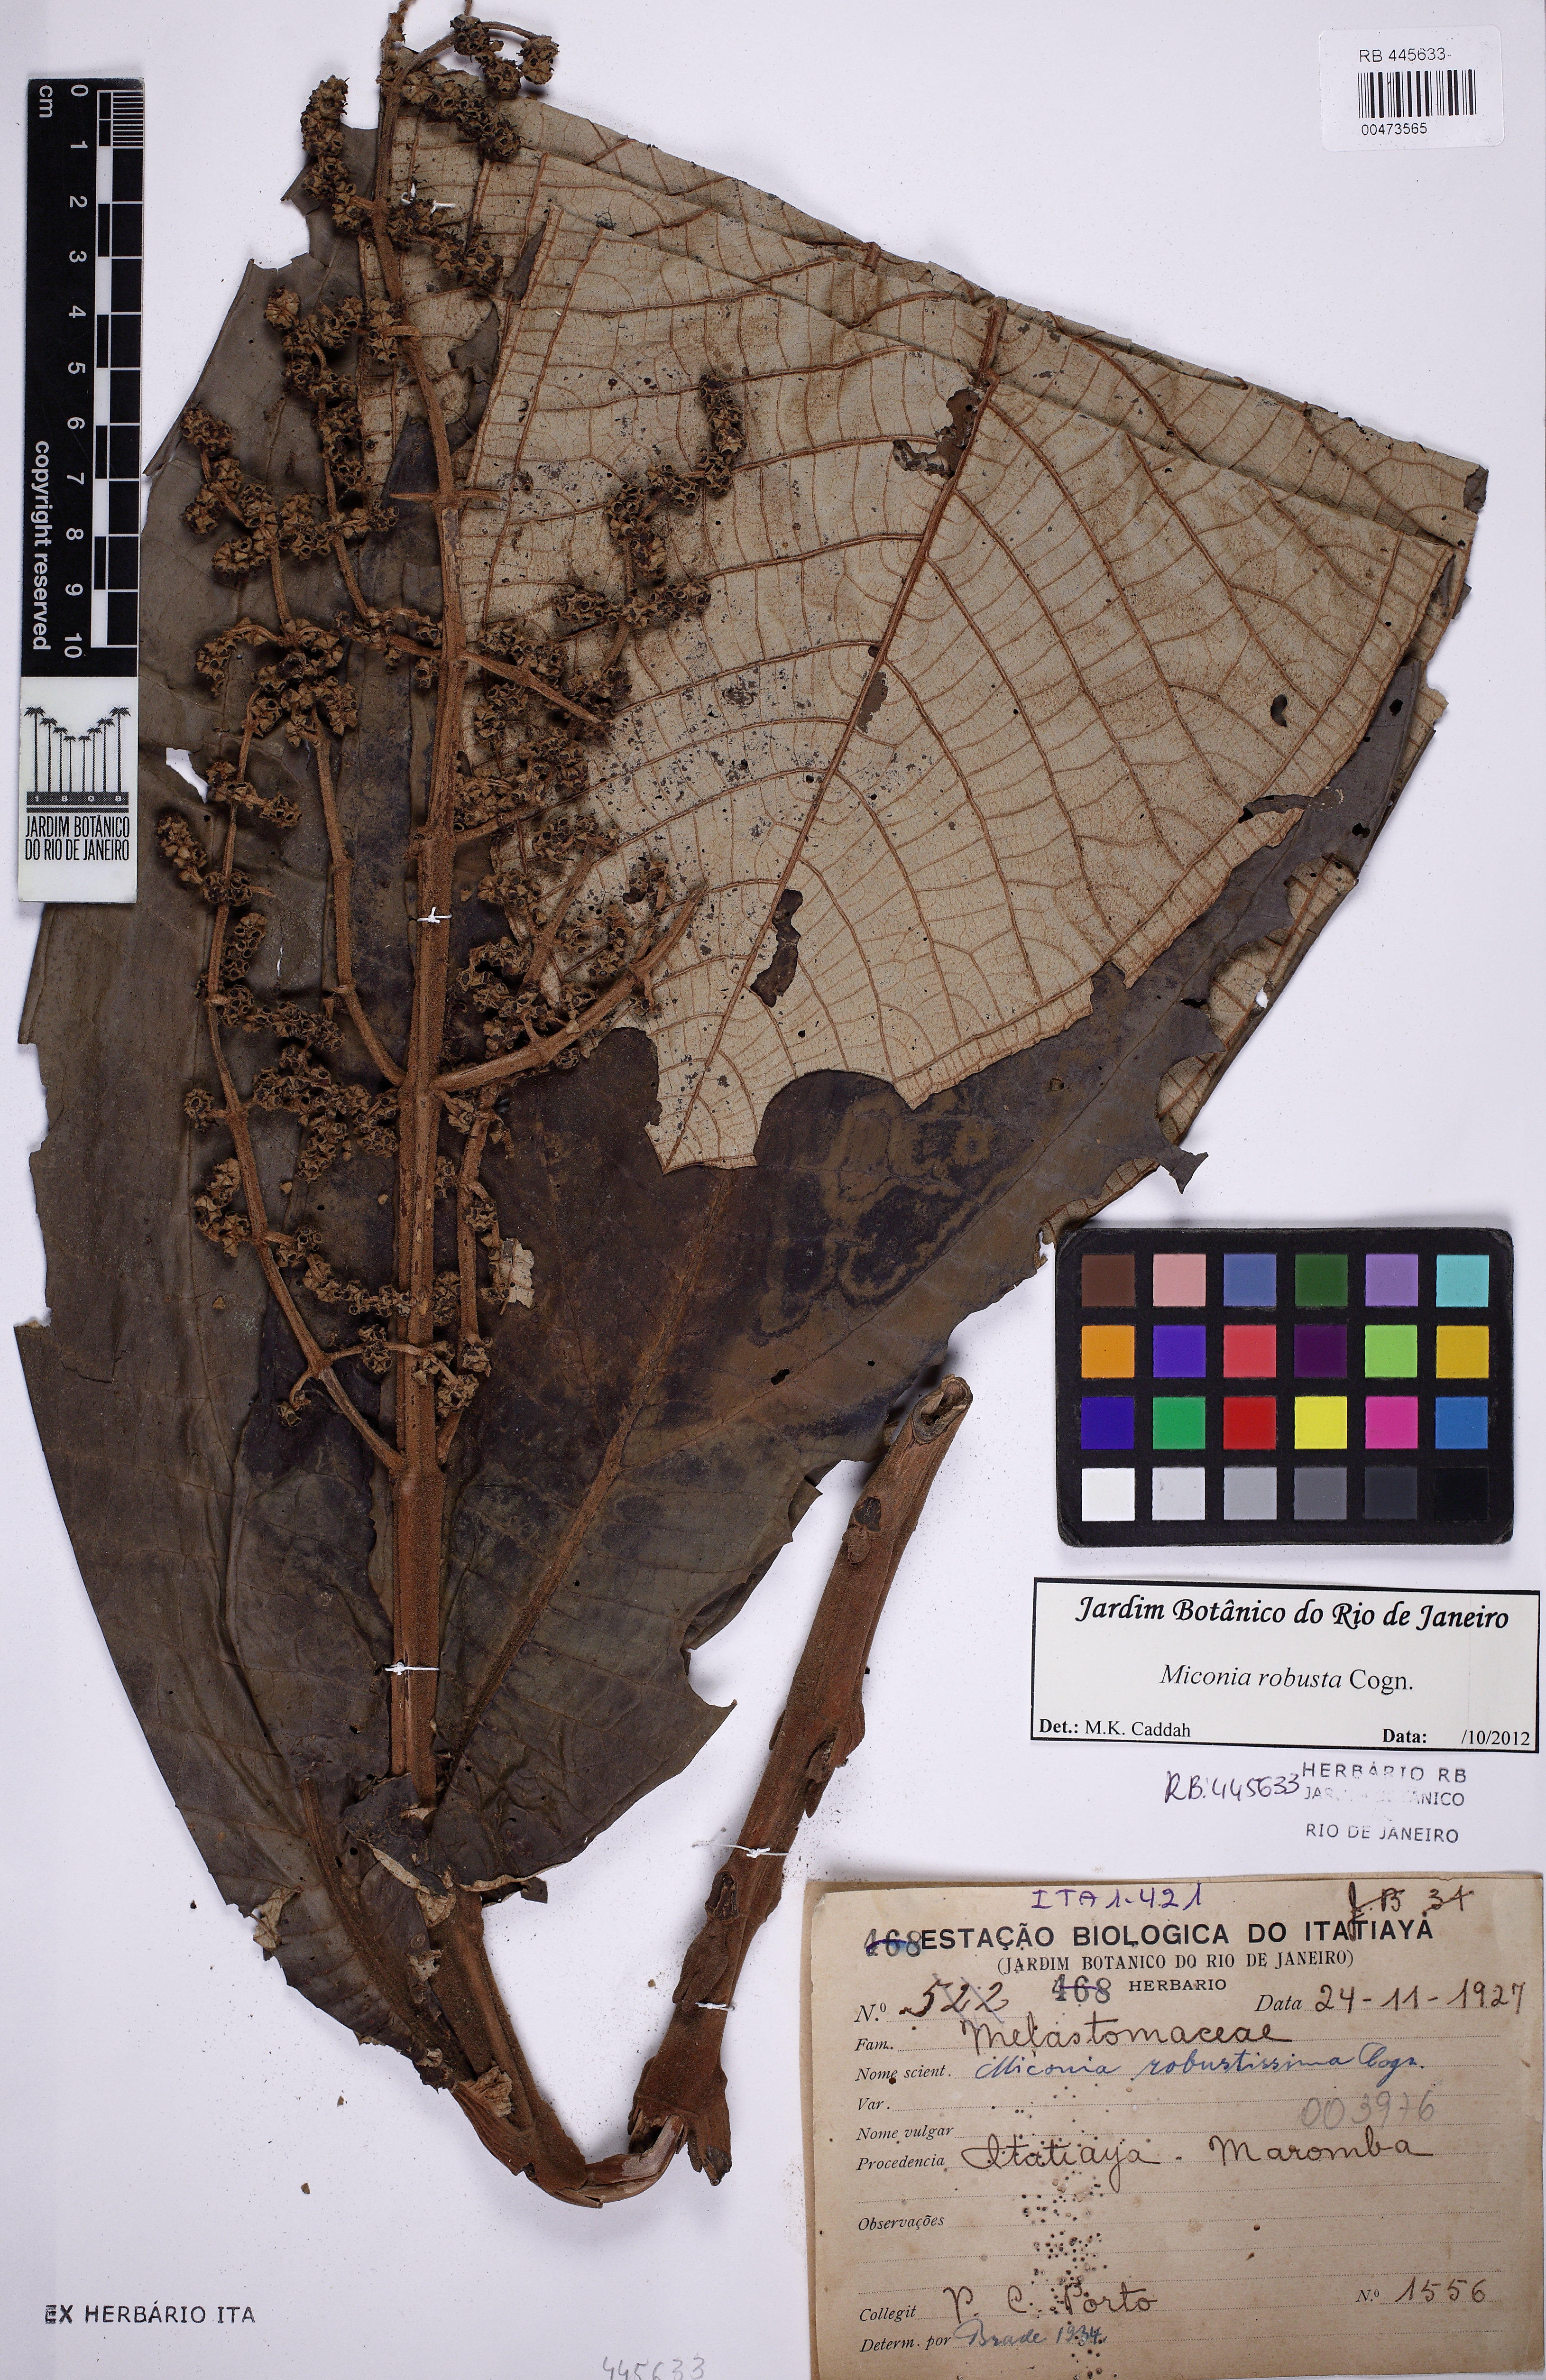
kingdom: Plantae
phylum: Tracheophyta
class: Magnoliopsida
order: Myrtales
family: Melastomataceae
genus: Miconia
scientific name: Miconia robusta
